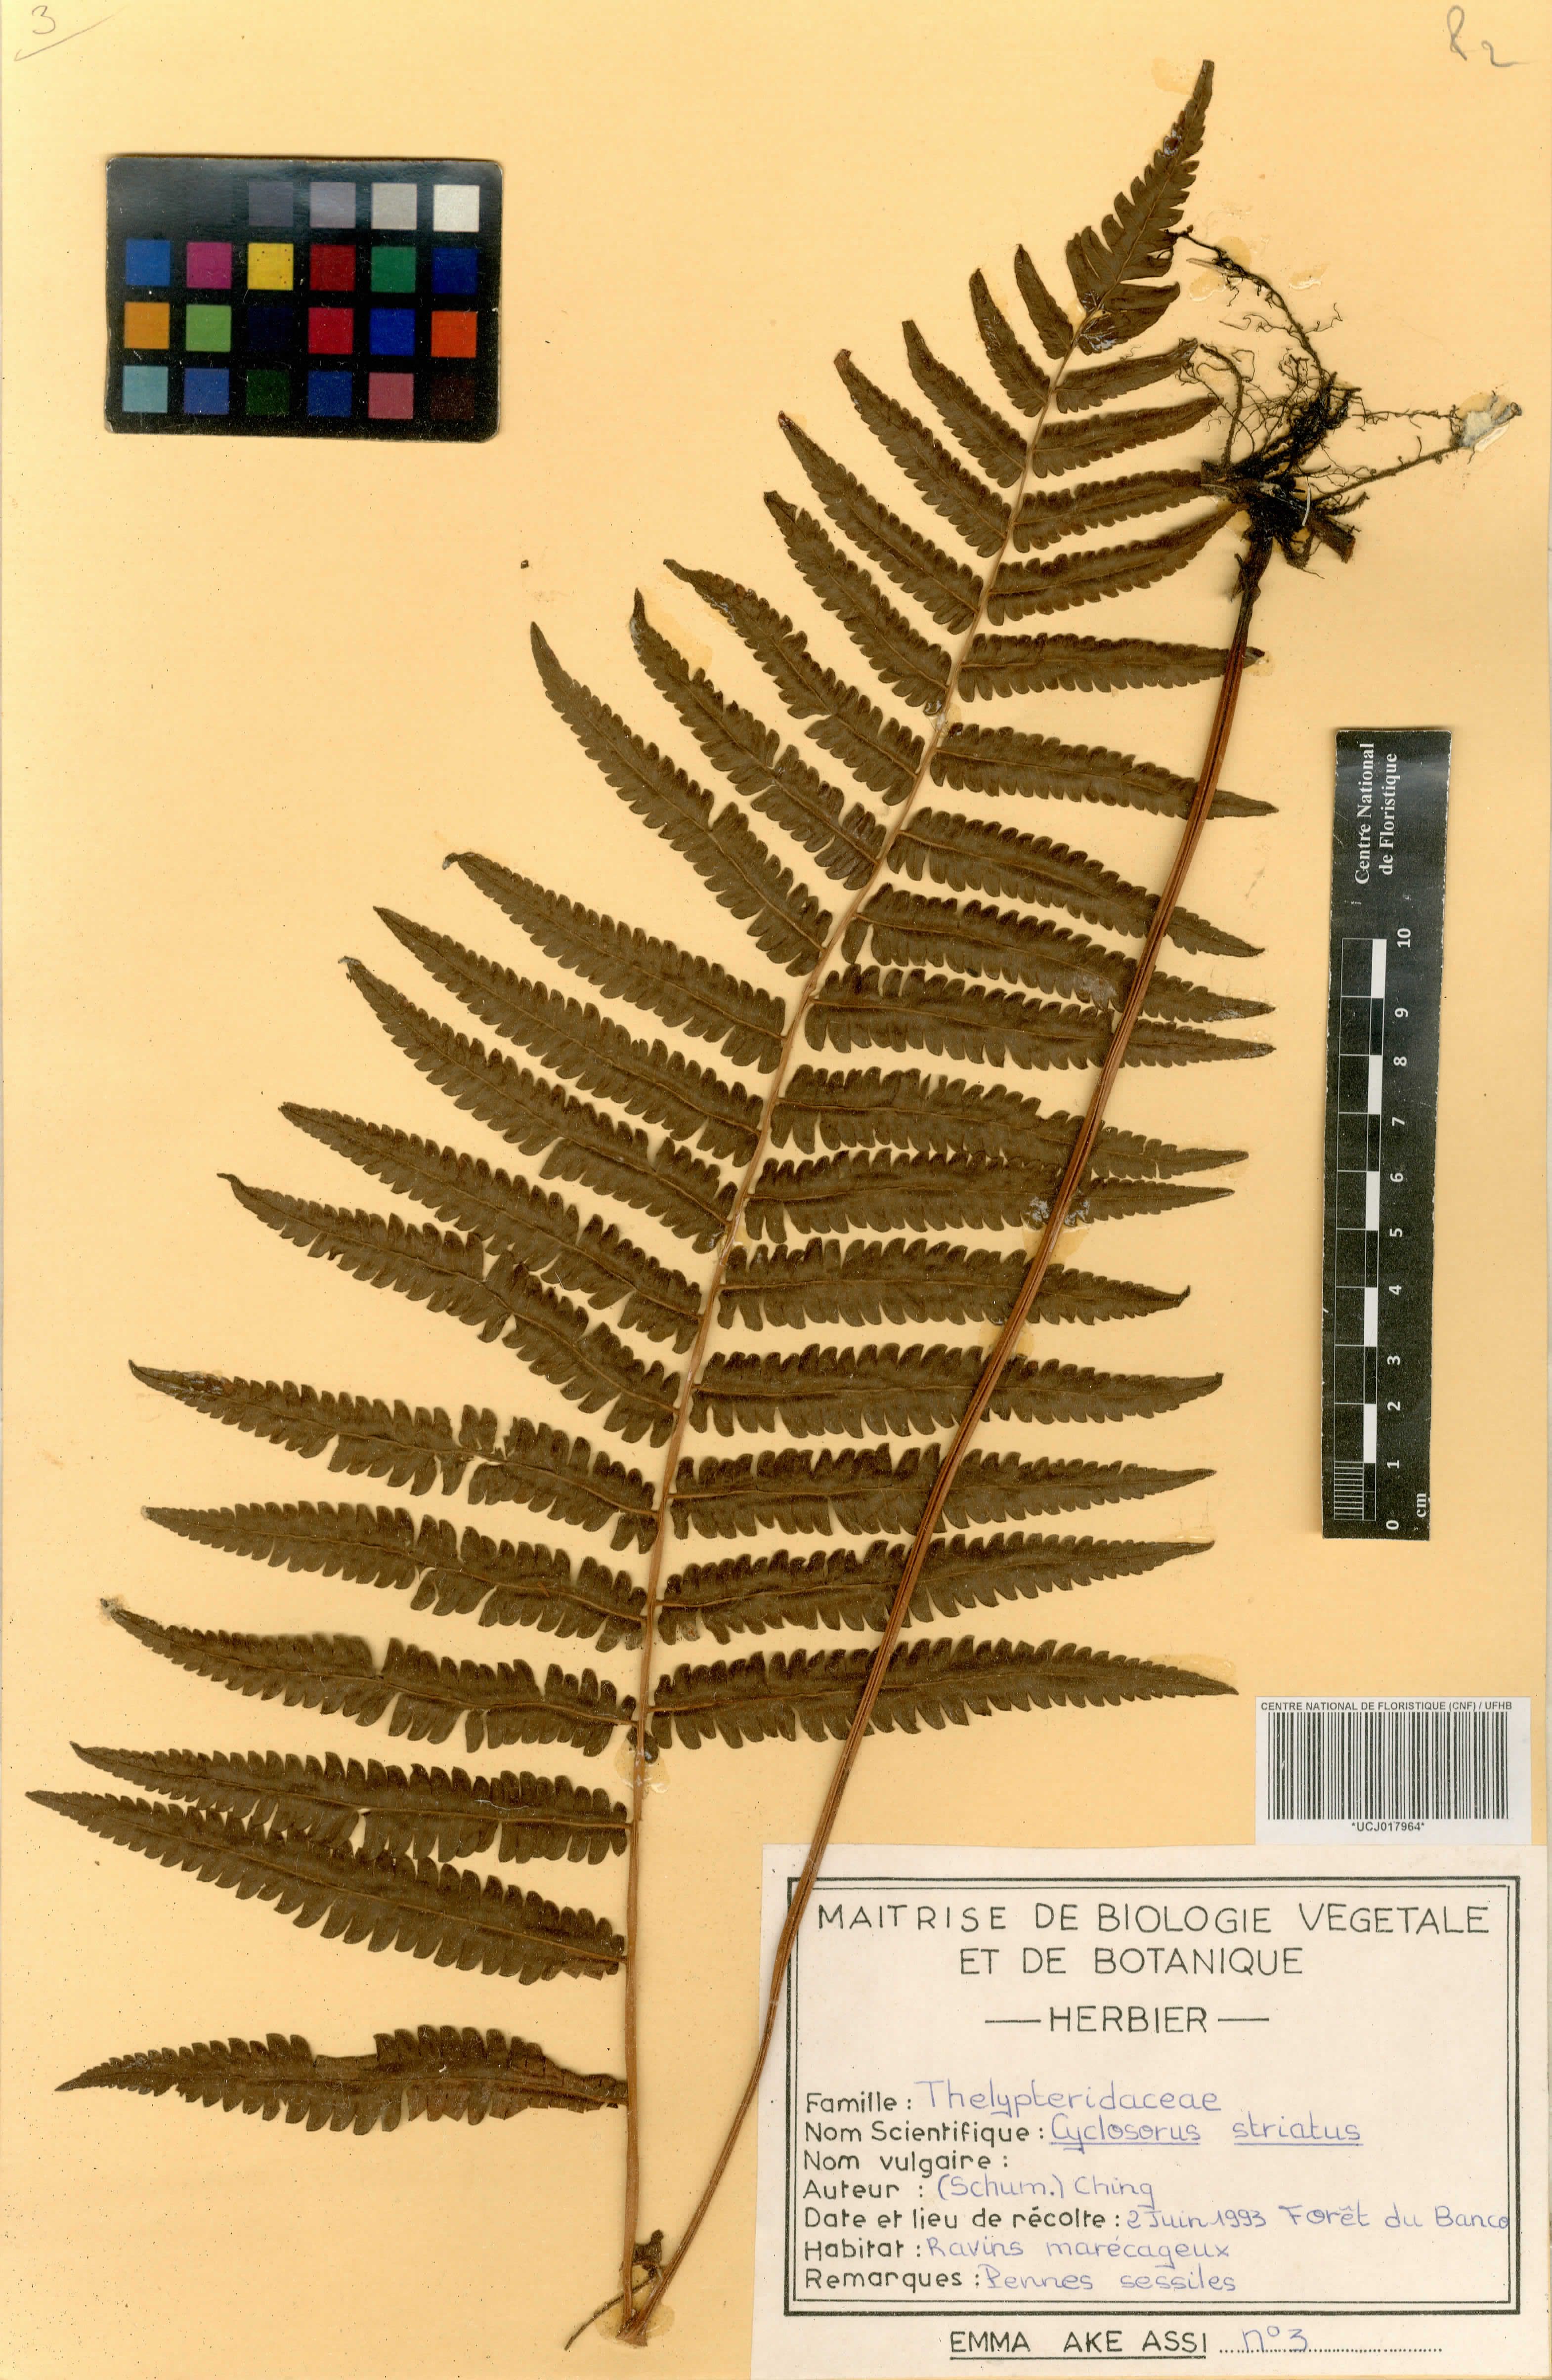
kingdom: Plantae
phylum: Tracheophyta
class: Polypodiopsida
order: Polypodiales
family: Thelypteridaceae
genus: Cyclosorus
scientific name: Cyclosorus striatus
